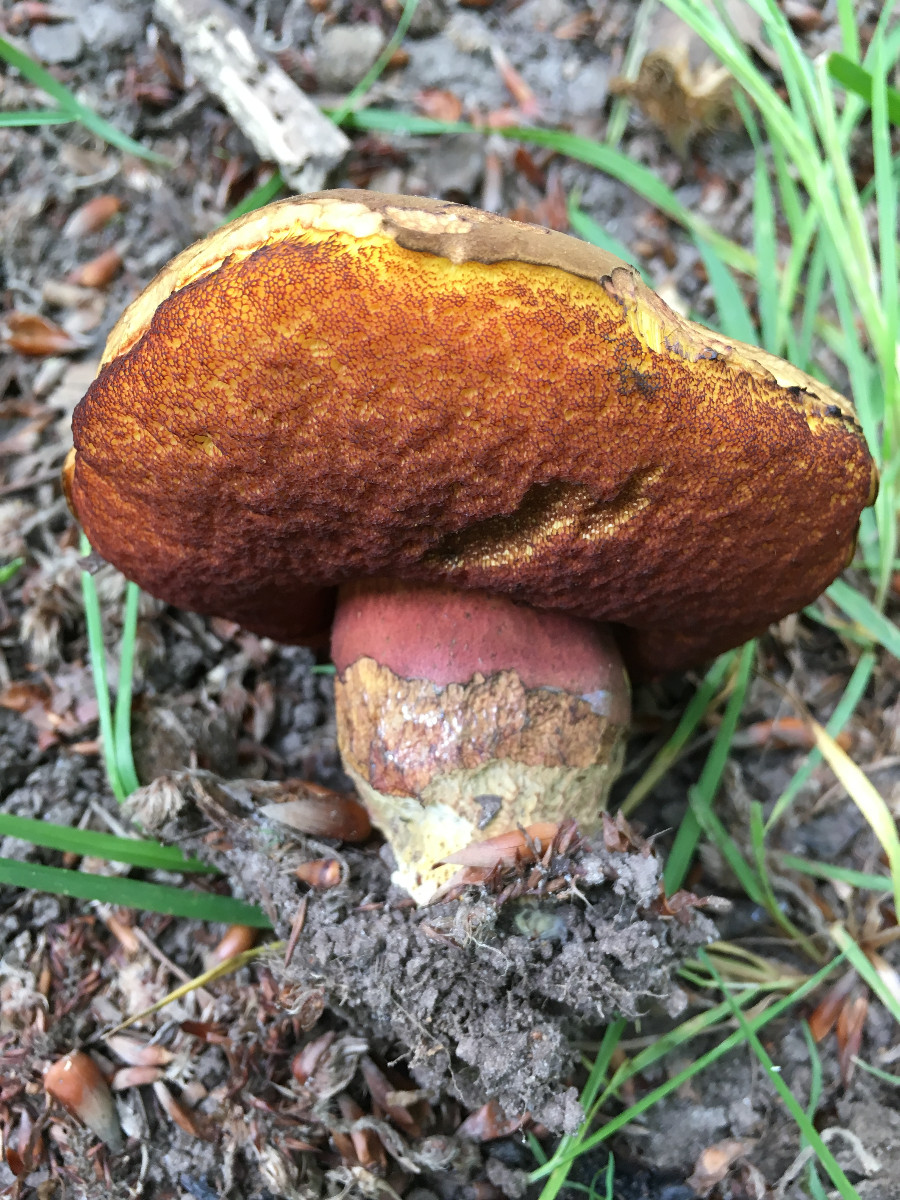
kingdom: Fungi
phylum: Basidiomycota
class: Agaricomycetes
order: Boletales
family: Boletaceae
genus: Neoboletus
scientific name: Neoboletus erythropus
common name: punktstokket indigorørhat
